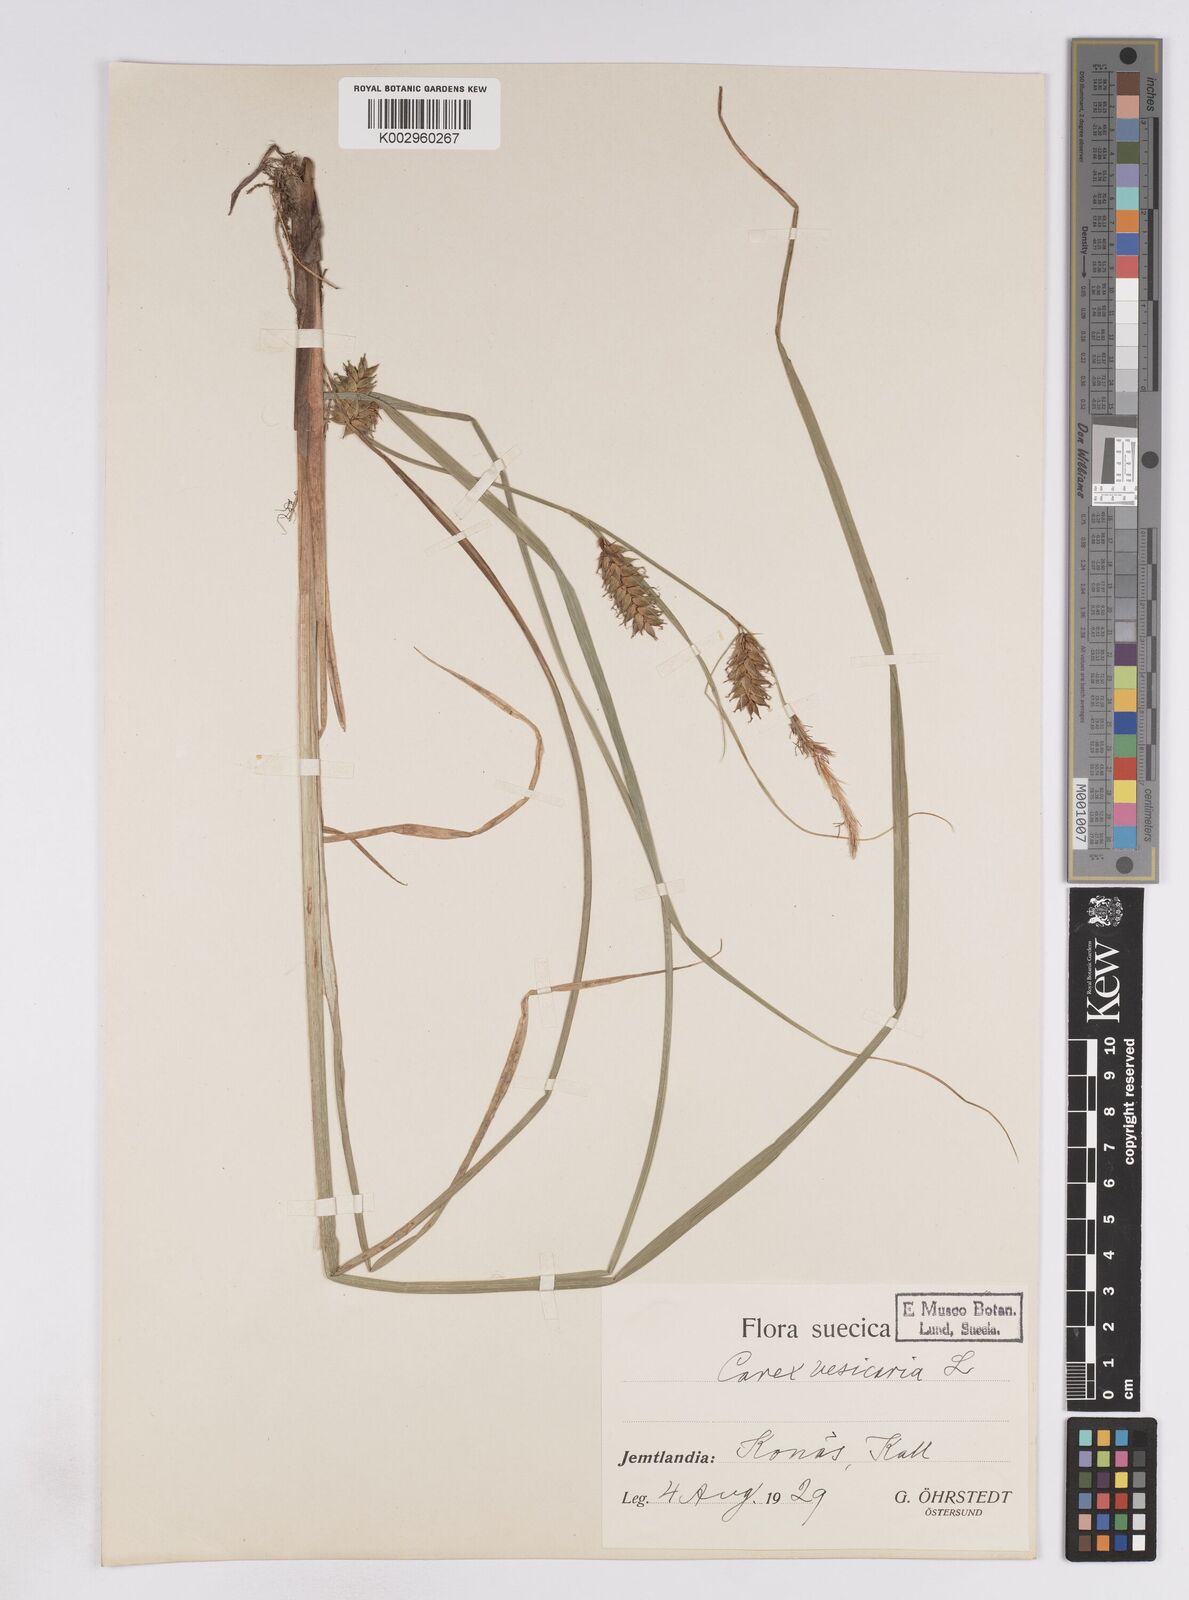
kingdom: Plantae
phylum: Tracheophyta
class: Liliopsida
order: Poales
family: Cyperaceae
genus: Carex
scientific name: Carex vesicaria
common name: Bladder-sedge
